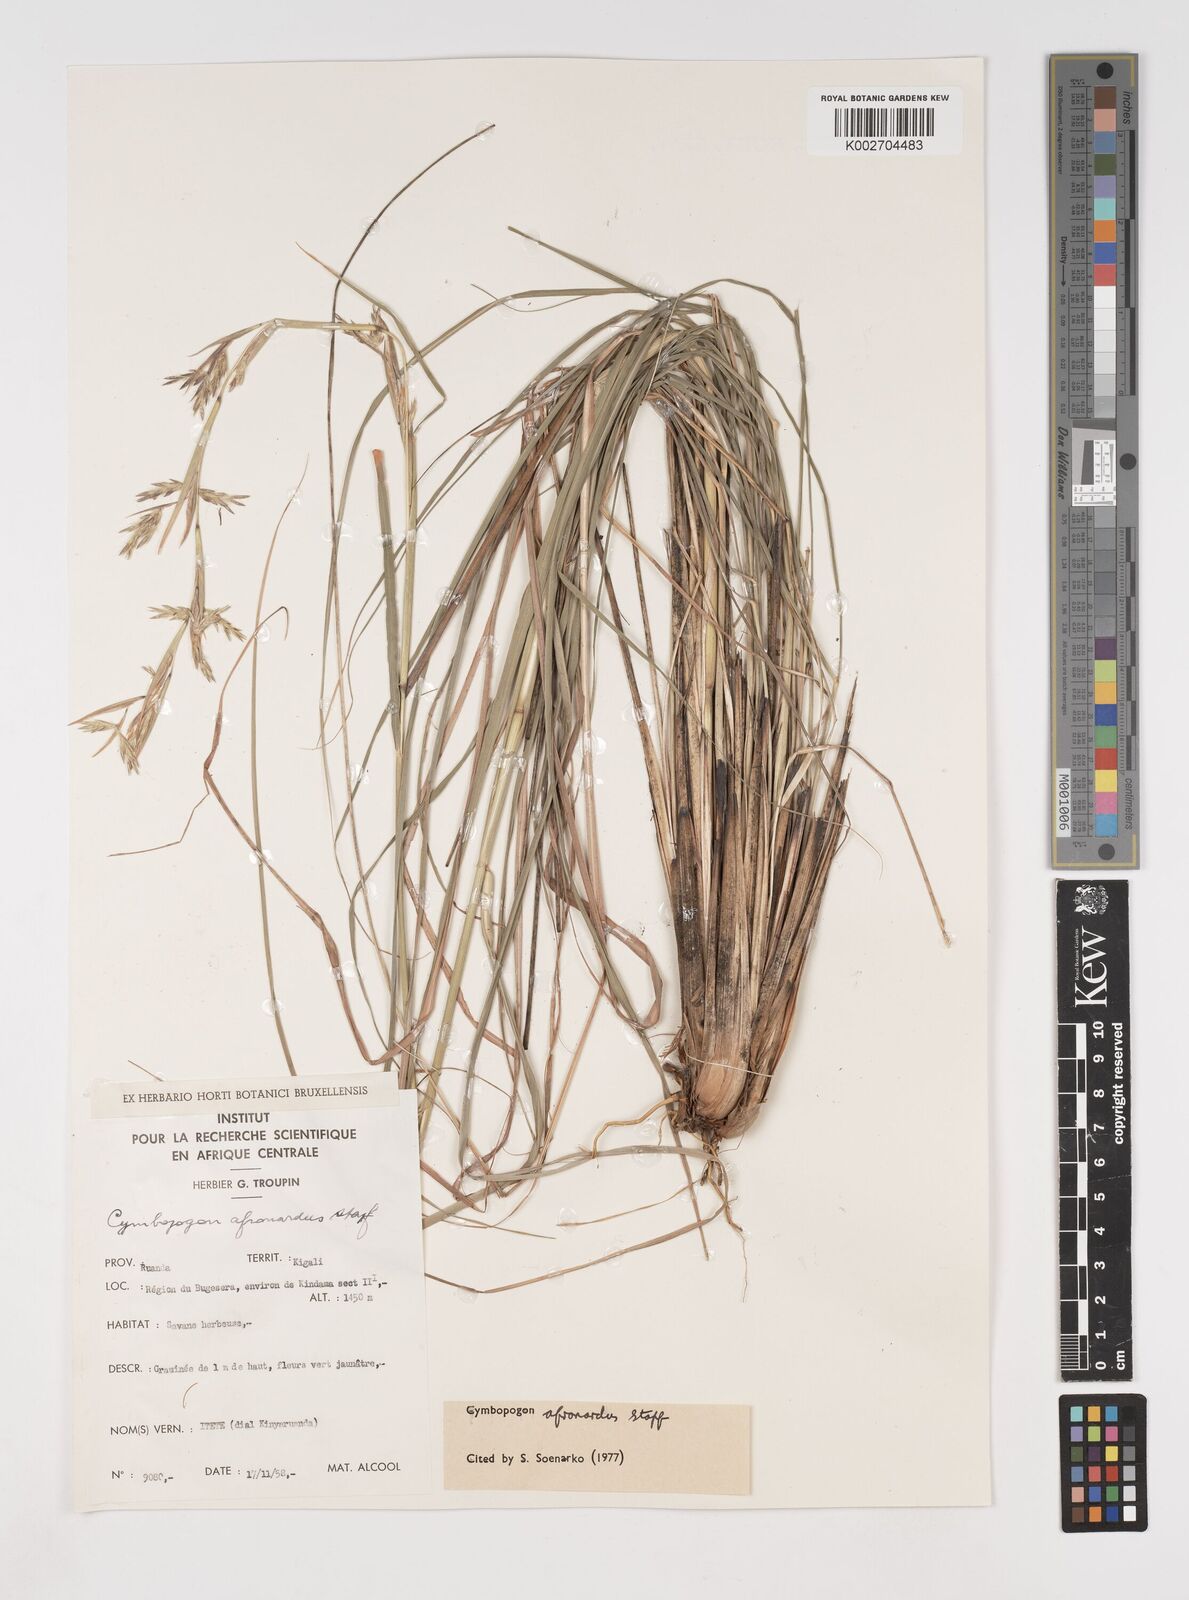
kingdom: Plantae
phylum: Tracheophyta
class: Liliopsida
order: Poales
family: Poaceae
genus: Cymbopogon
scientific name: Cymbopogon nardus
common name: Giant turpentine grass
